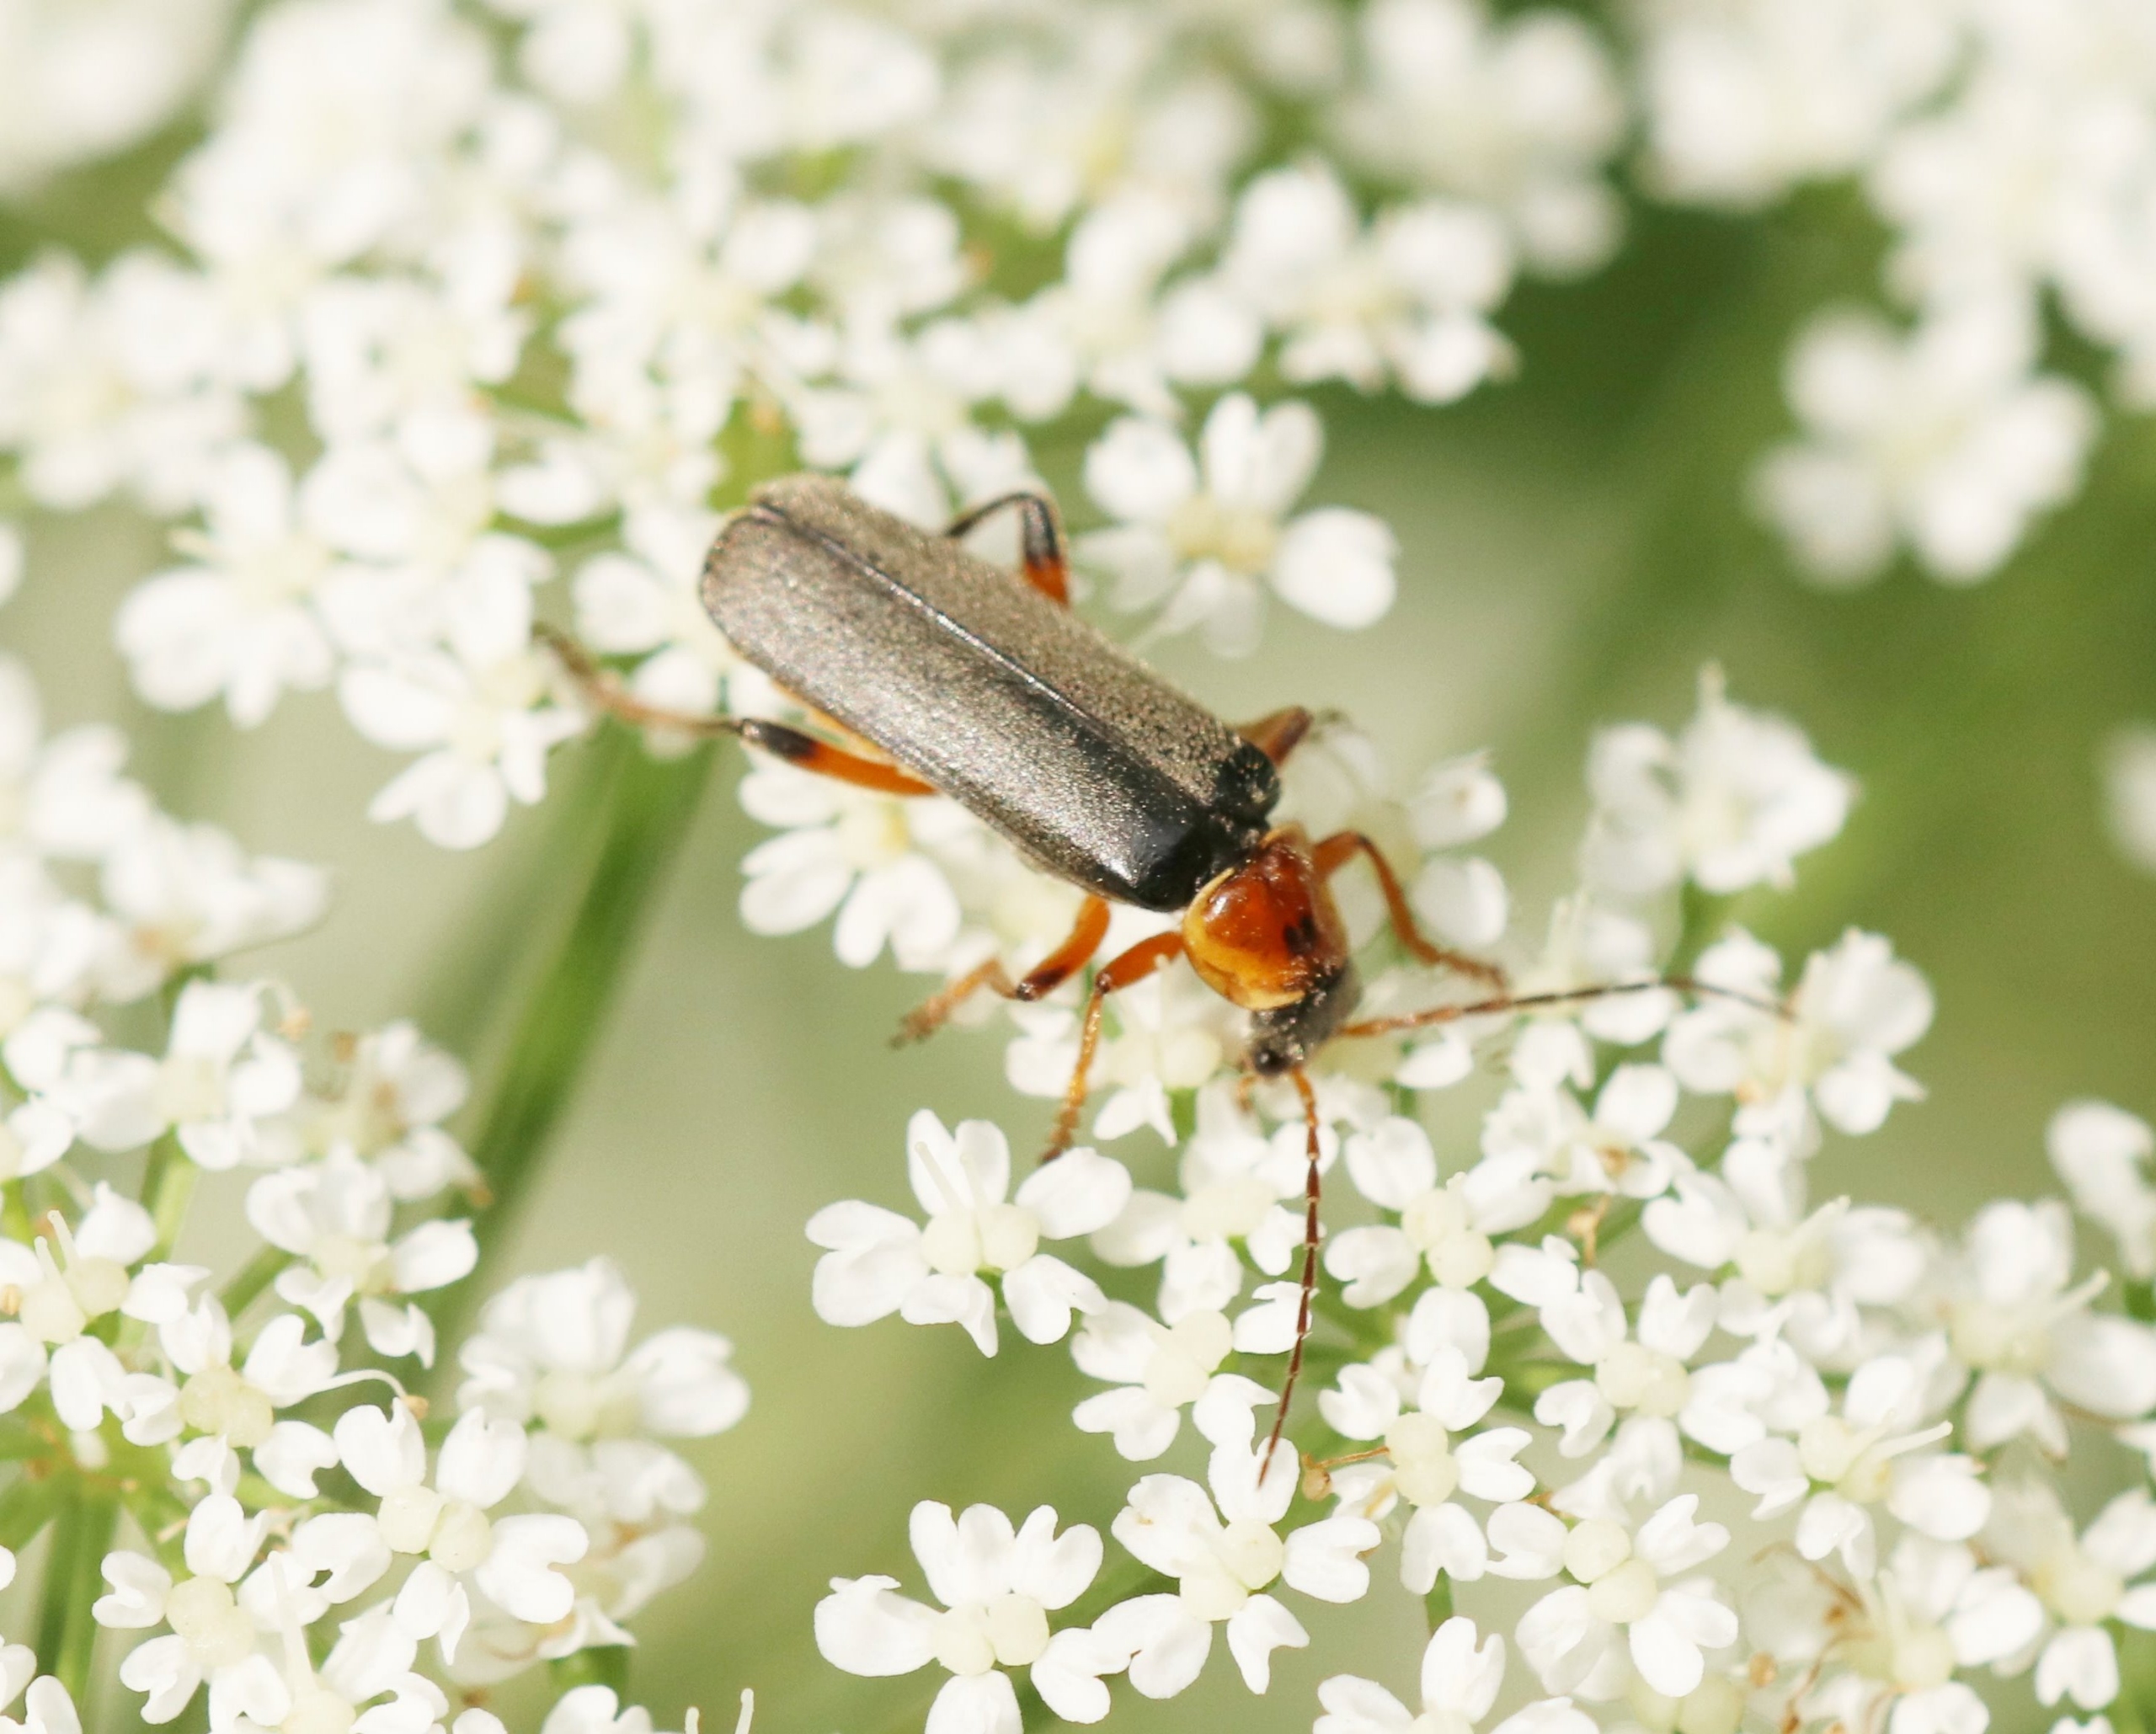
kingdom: Animalia
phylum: Arthropoda
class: Insecta
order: Coleoptera
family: Cantharidae
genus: Cantharis
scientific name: Cantharis nigricans
